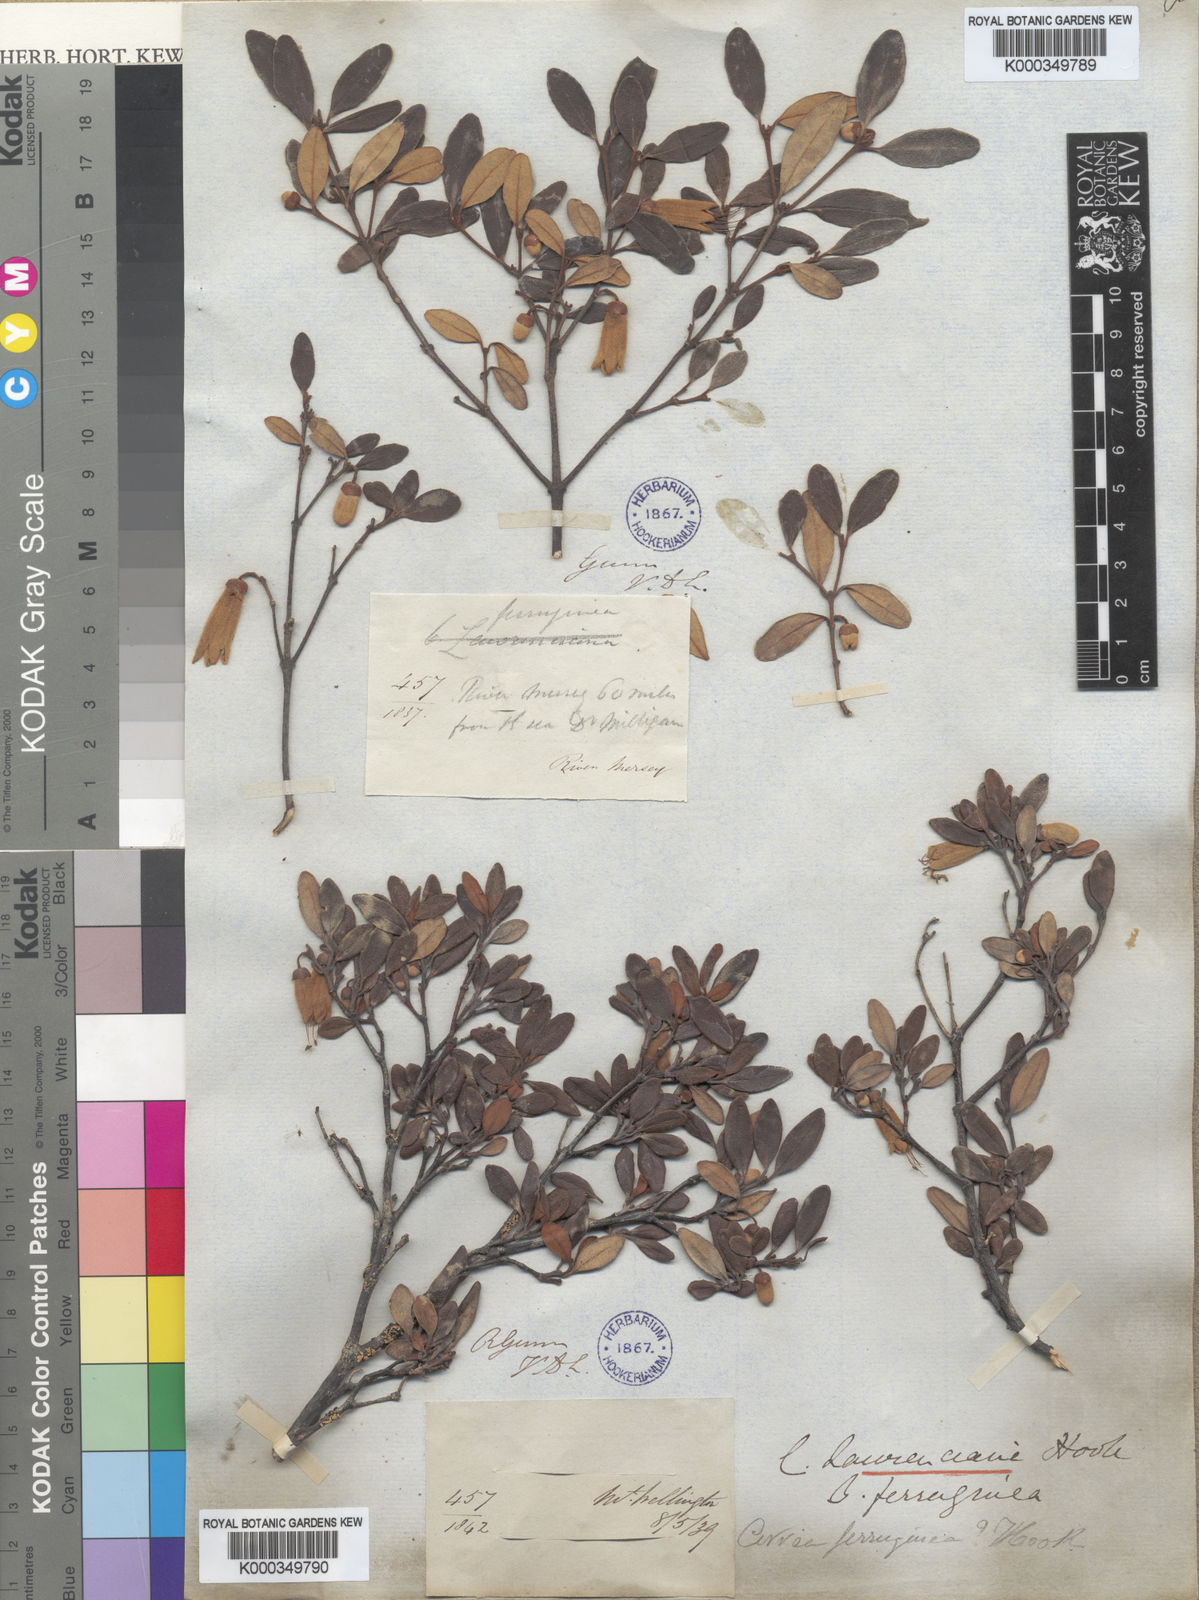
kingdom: Plantae
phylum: Tracheophyta
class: Magnoliopsida
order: Sapindales
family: Rutaceae
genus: Correa
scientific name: Correa lawrenceana
